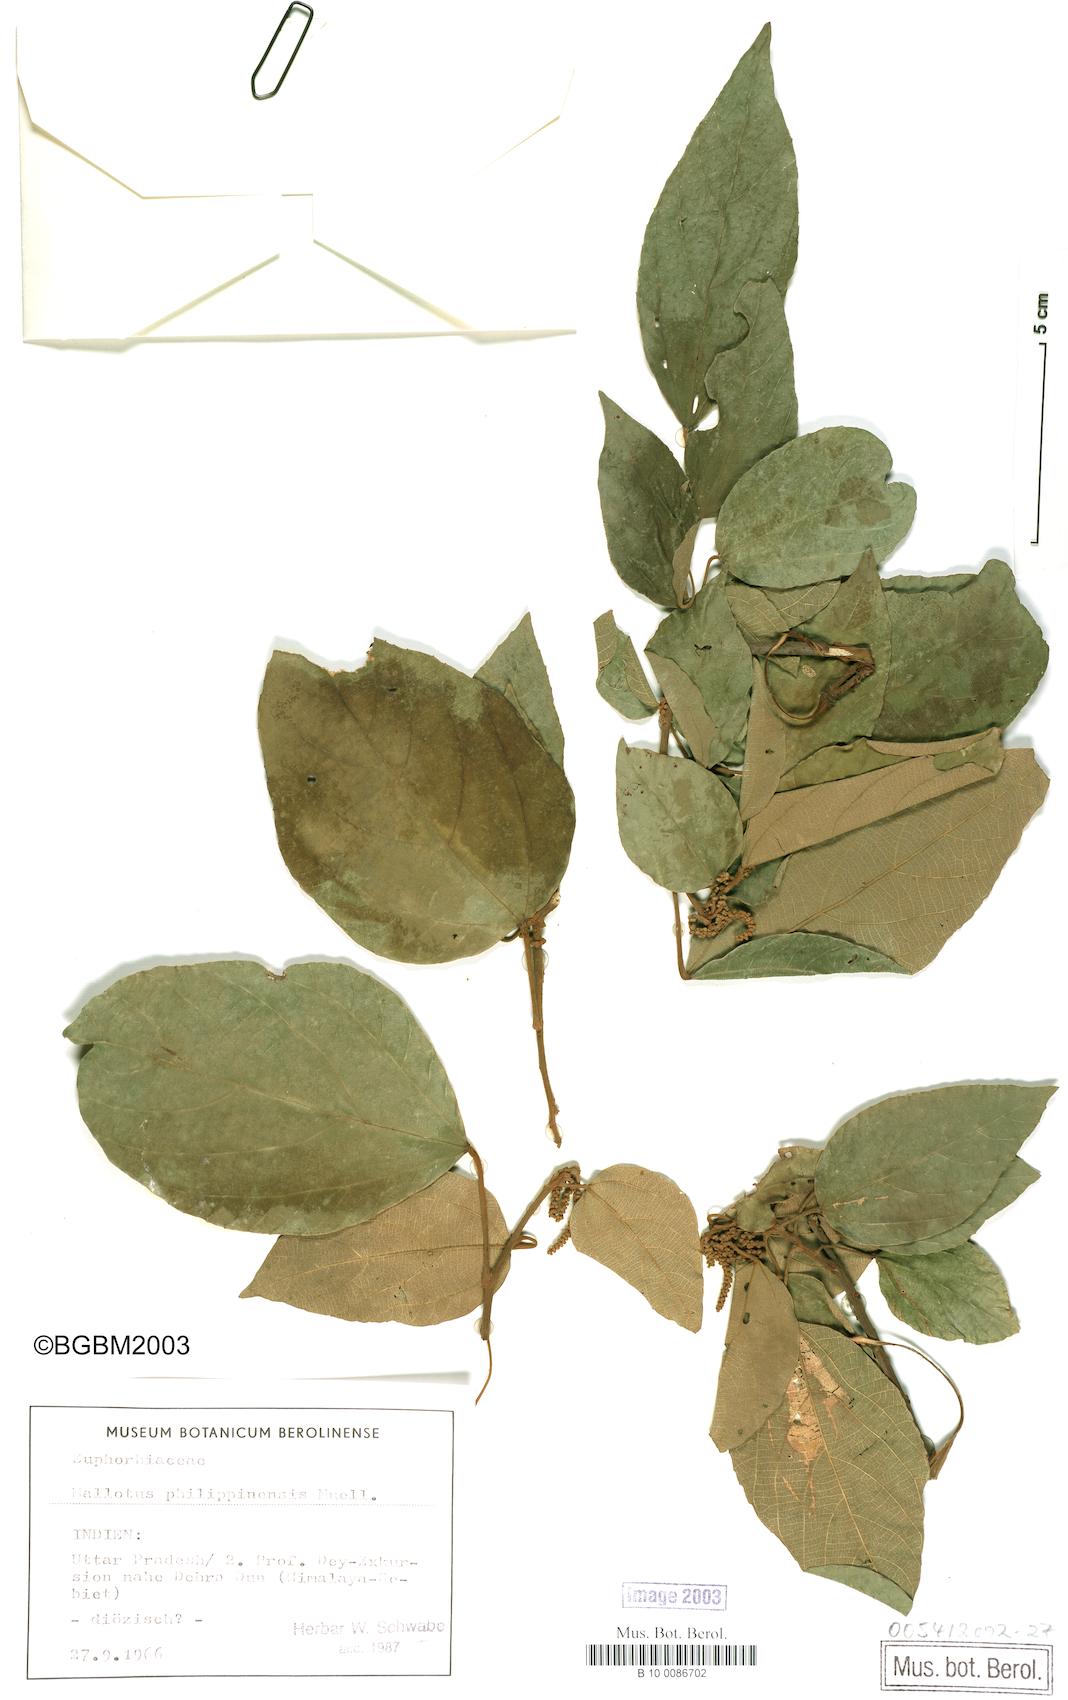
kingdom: Plantae
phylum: Tracheophyta
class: Magnoliopsida
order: Malpighiales
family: Euphorbiaceae
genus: Mallotus
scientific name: Mallotus philippensis
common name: Kamala tree
